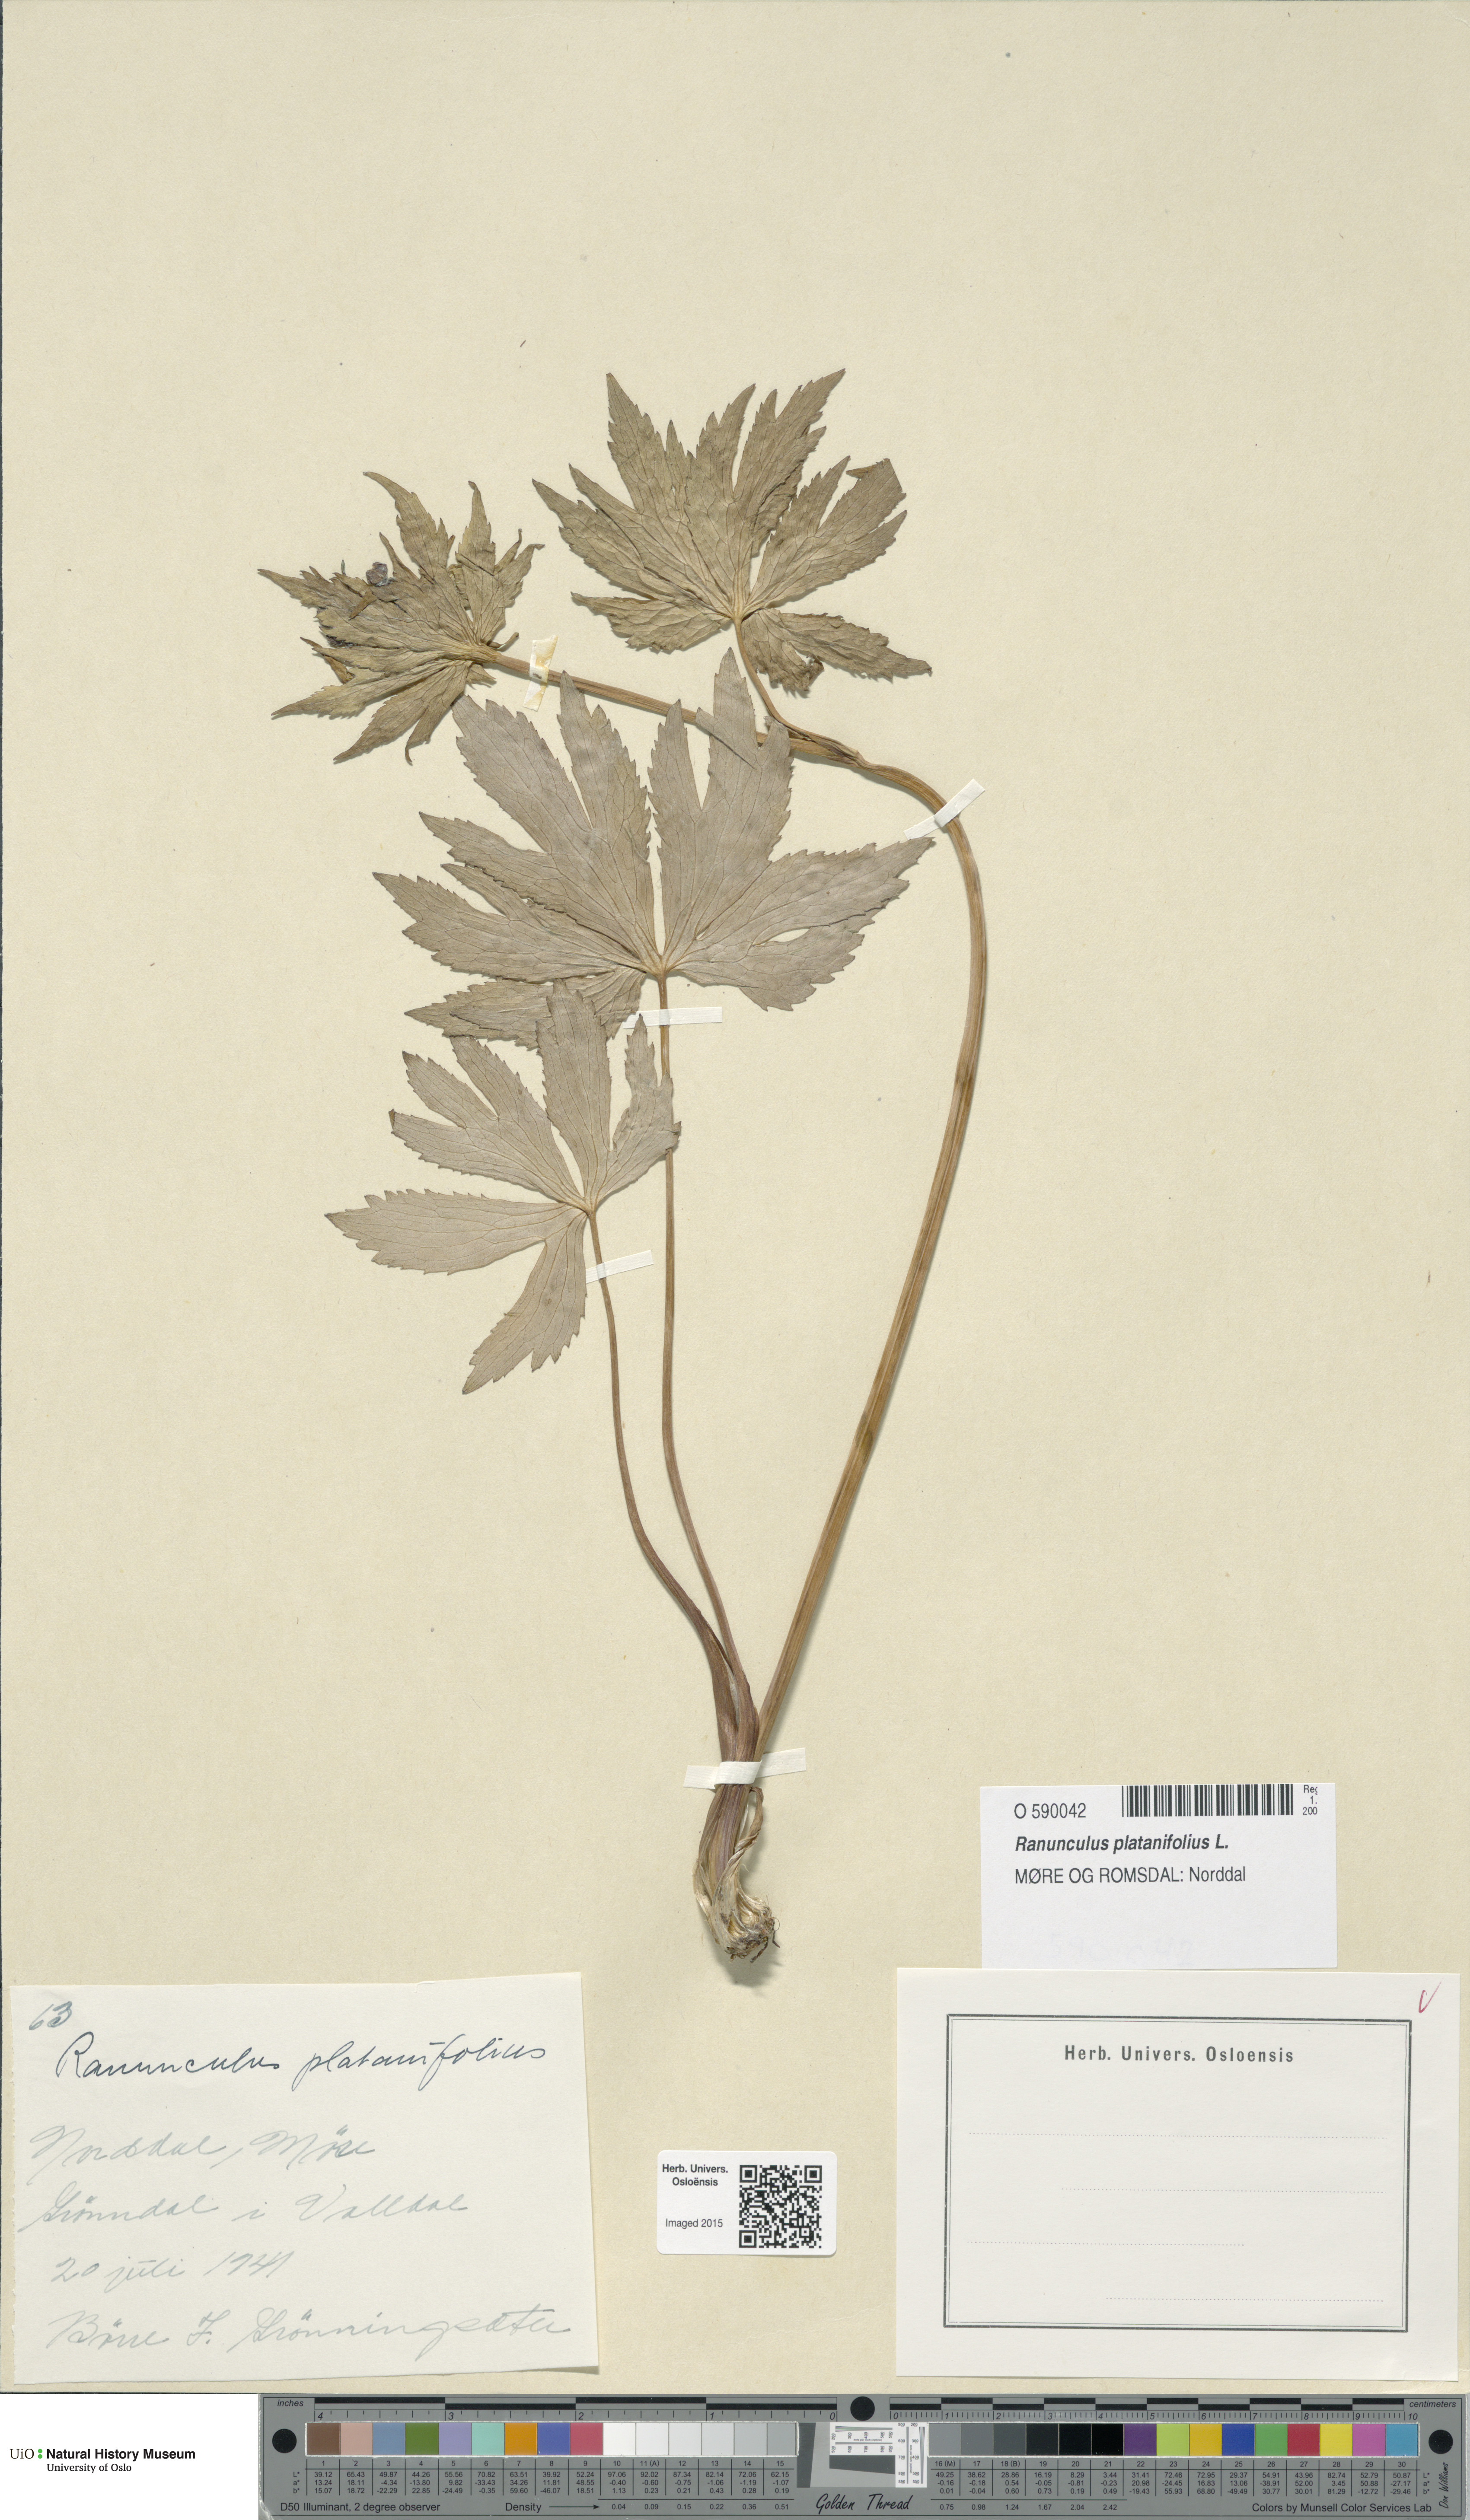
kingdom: Plantae
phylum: Tracheophyta
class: Magnoliopsida
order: Ranunculales
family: Ranunculaceae
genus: Ranunculus
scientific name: Ranunculus platanifolius
